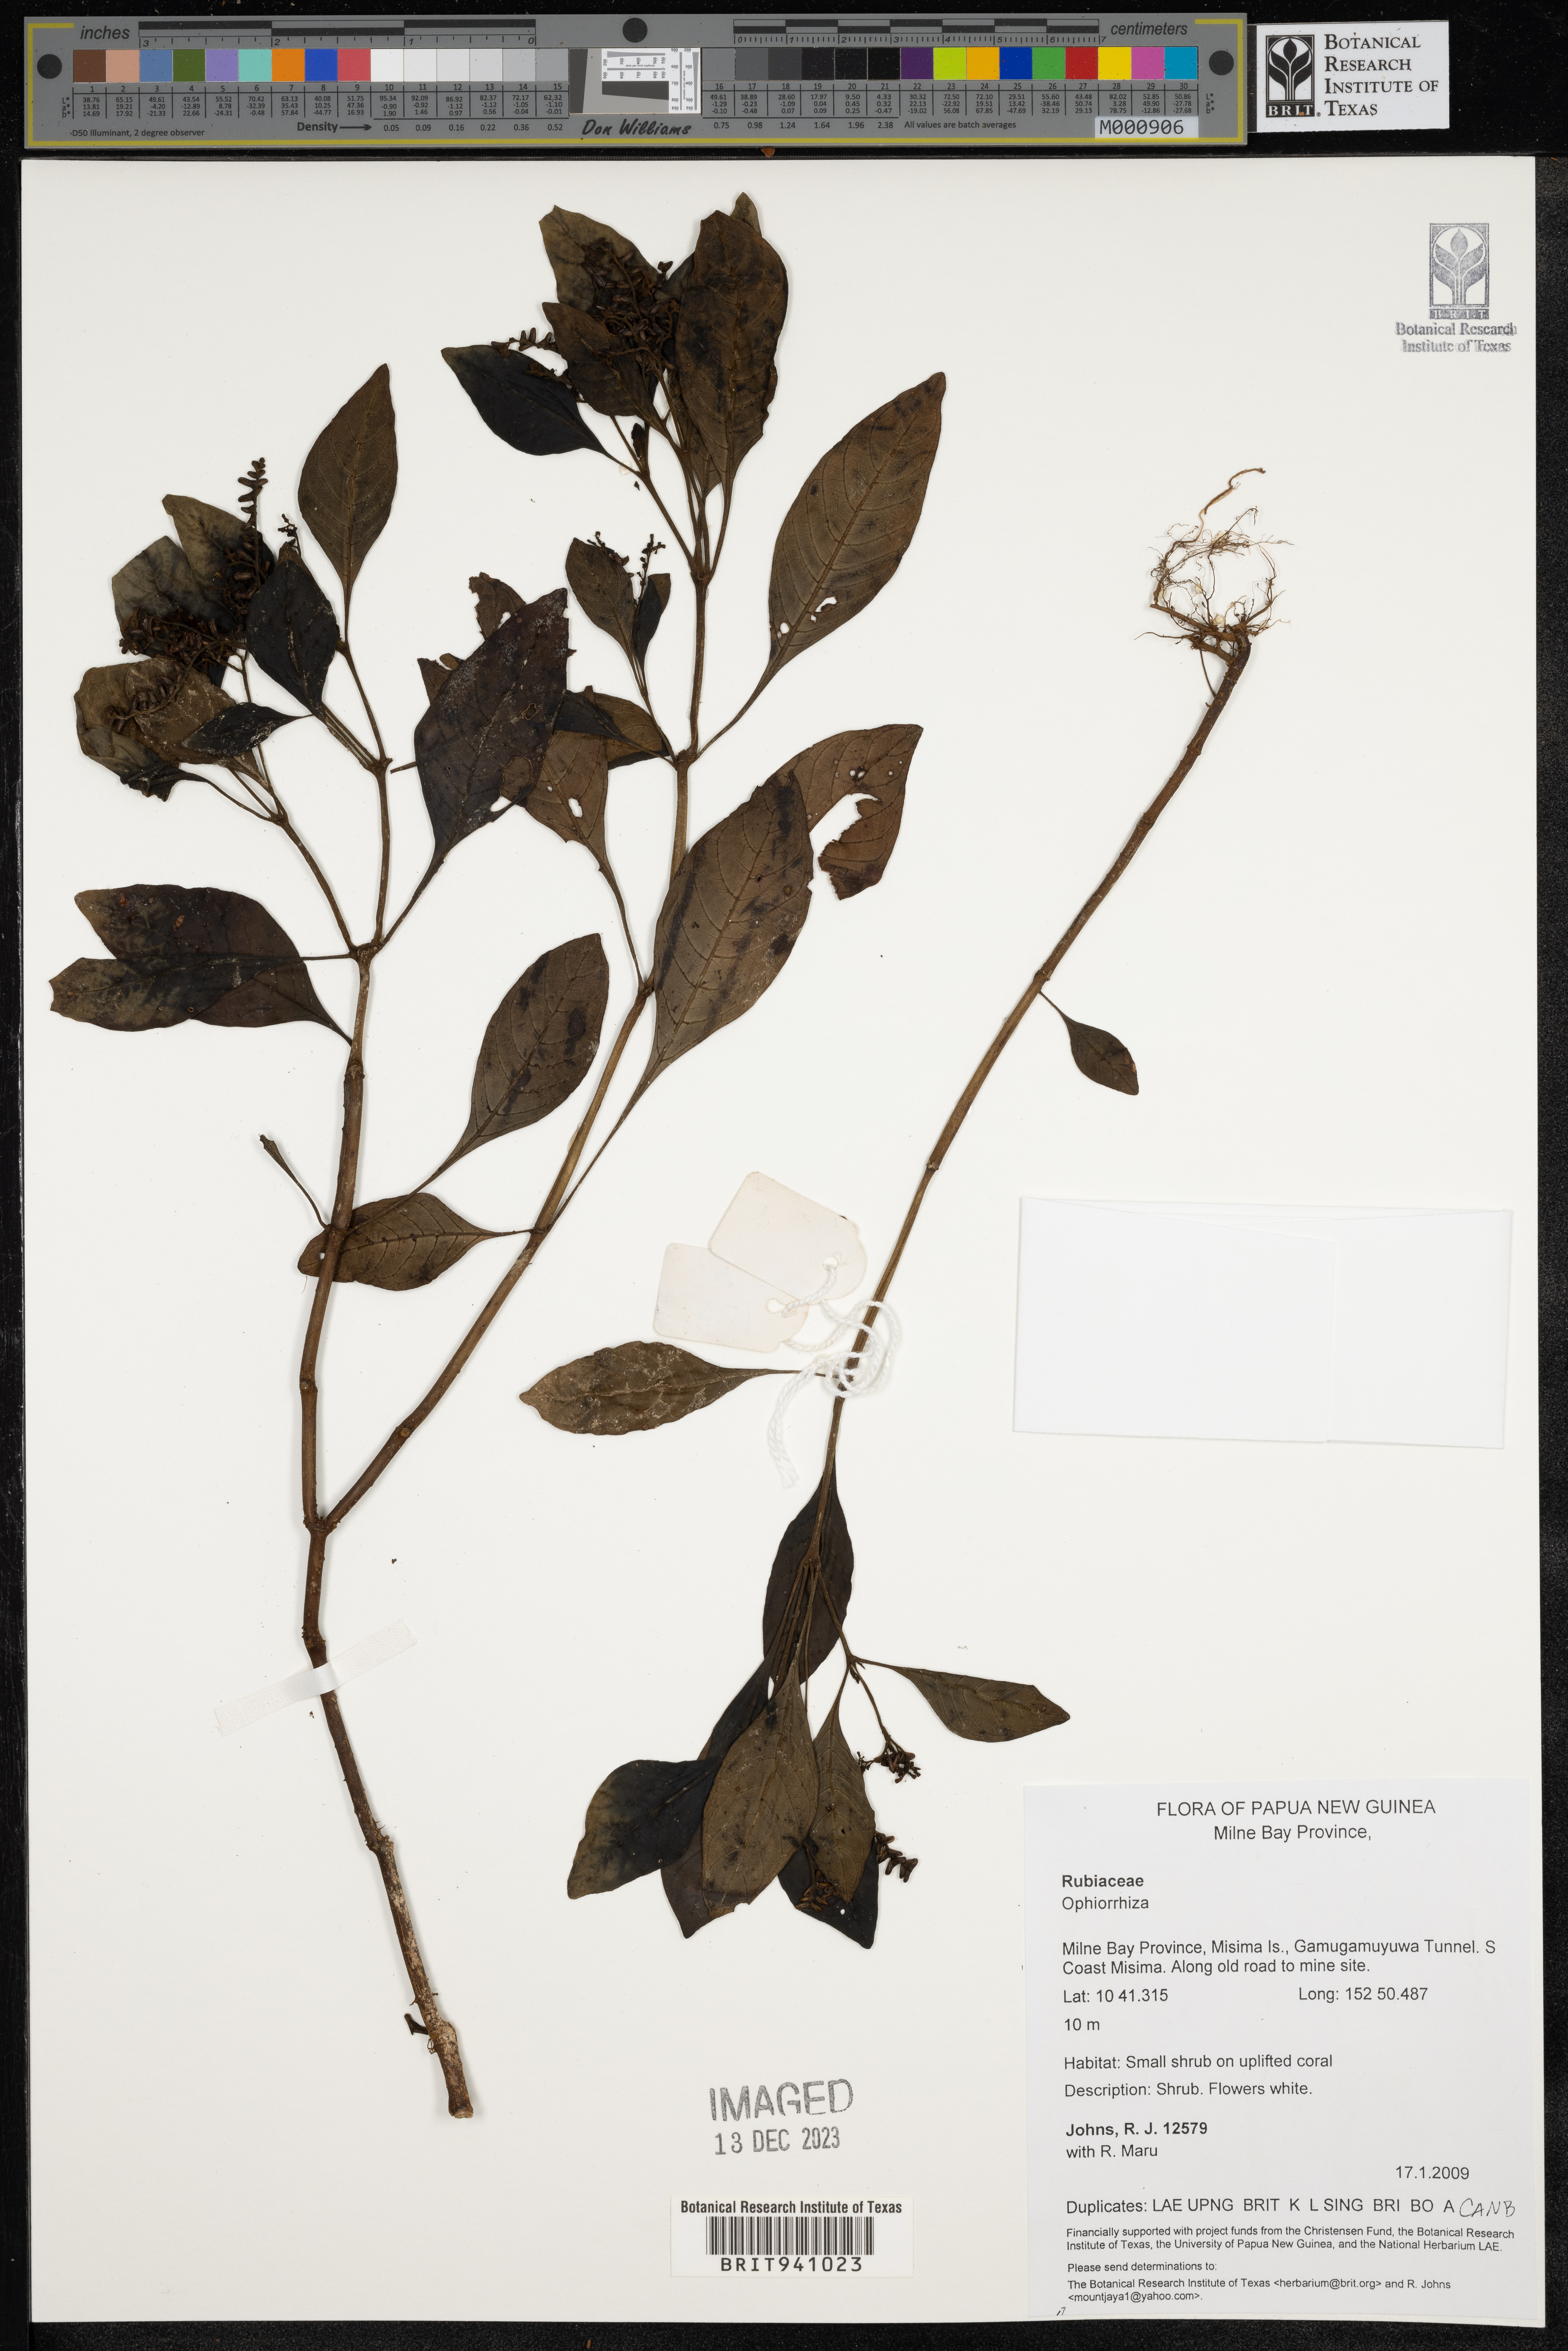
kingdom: Plantae
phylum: Tracheophyta
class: Magnoliopsida
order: Gentianales
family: Rubiaceae
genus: Ophiorrhiza
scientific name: Ophiorrhiza
